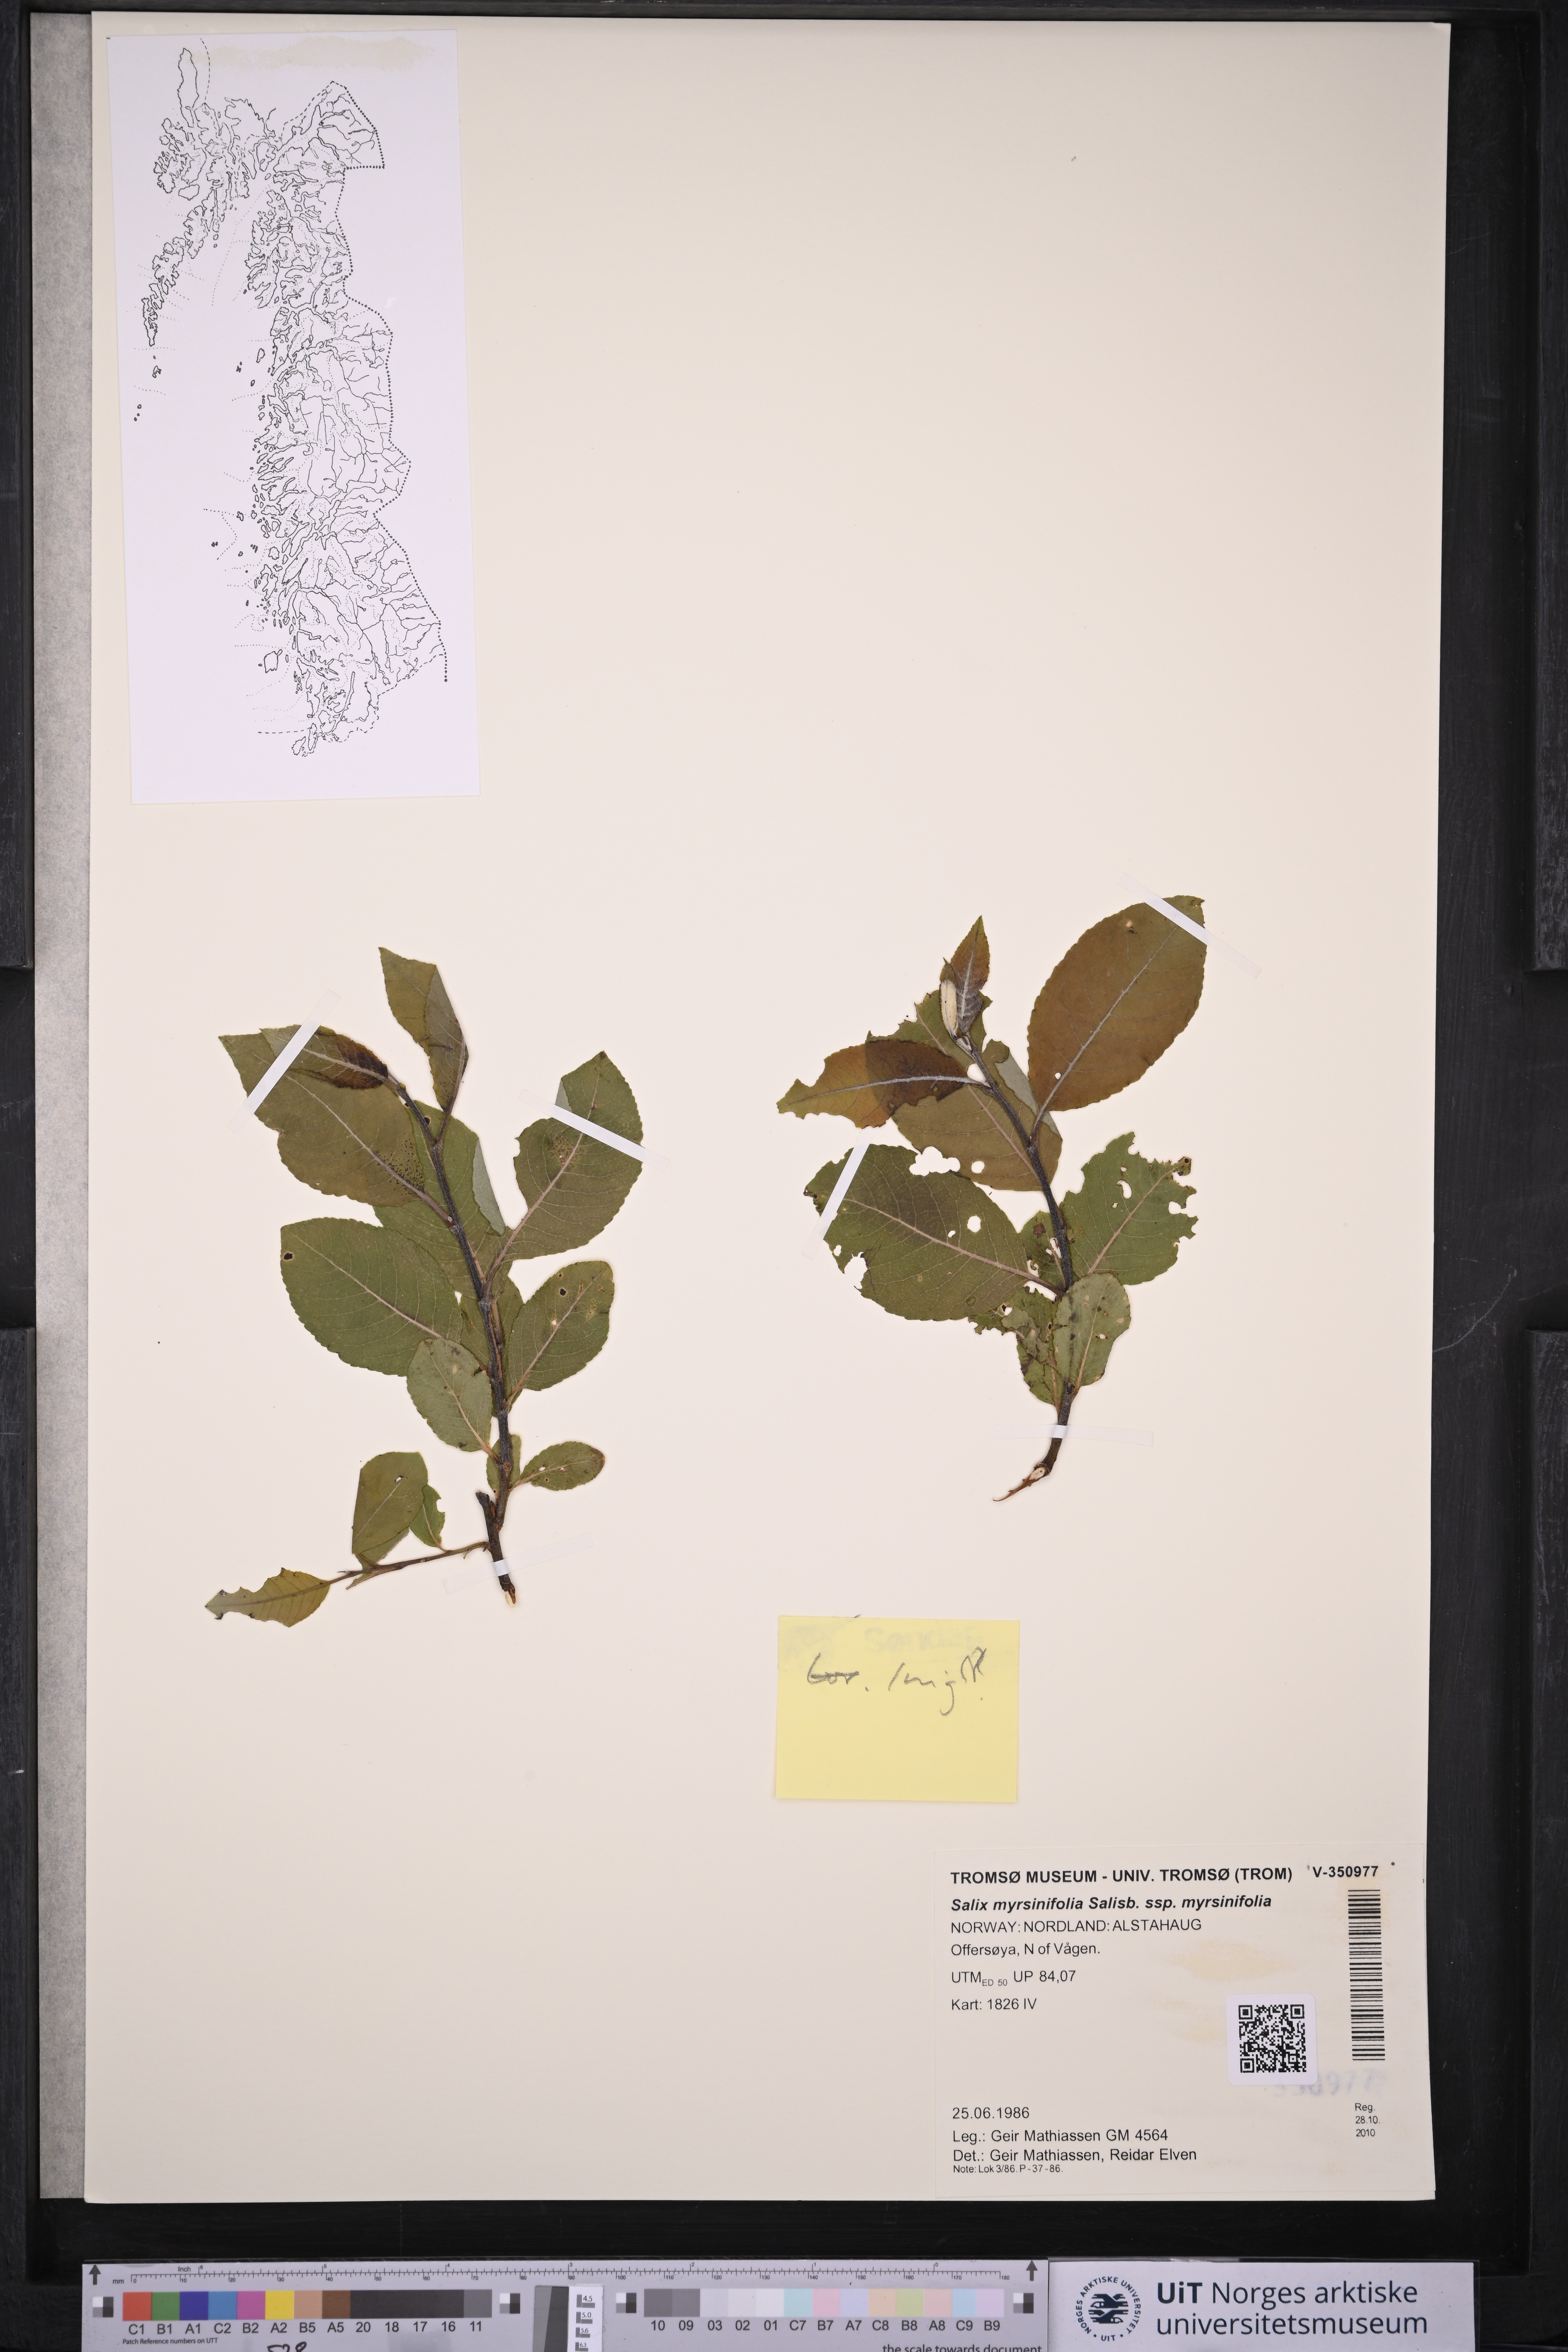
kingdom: Plantae
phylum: Tracheophyta
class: Magnoliopsida
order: Malpighiales
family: Salicaceae
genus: Salix
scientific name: Salix myrsinifolia
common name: Dark-leaved willow
